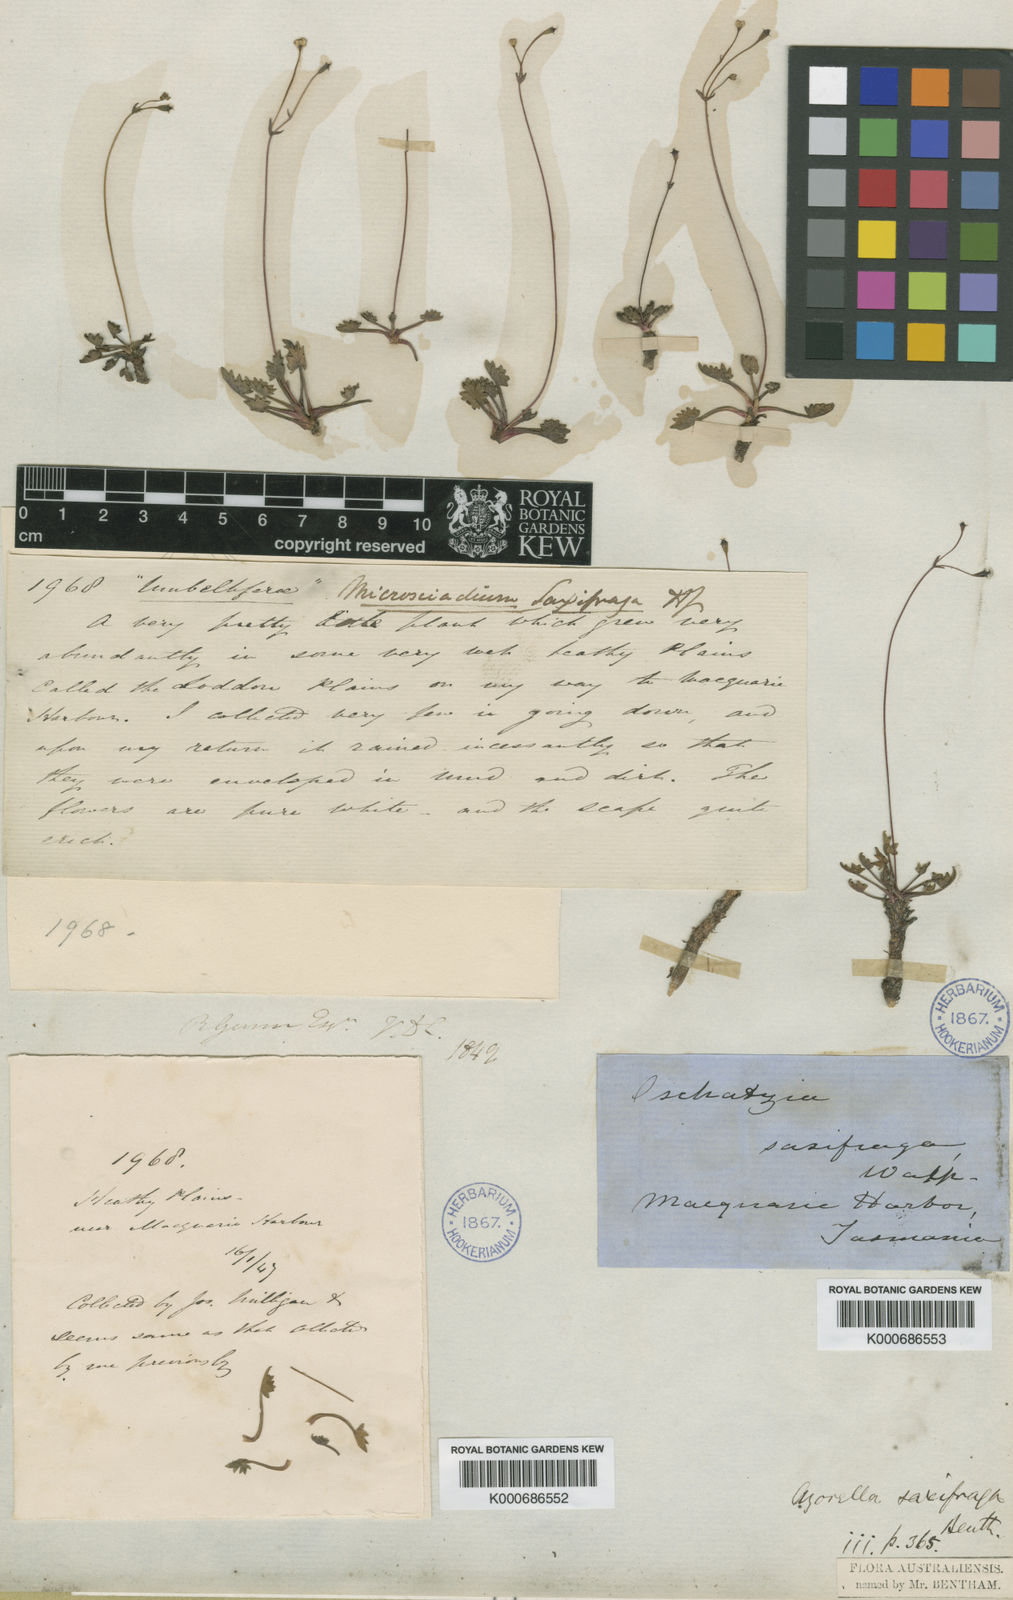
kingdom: Plantae
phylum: Tracheophyta
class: Magnoliopsida
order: Apiales
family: Apiaceae
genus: Oschatzia
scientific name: Oschatzia saxifraga
